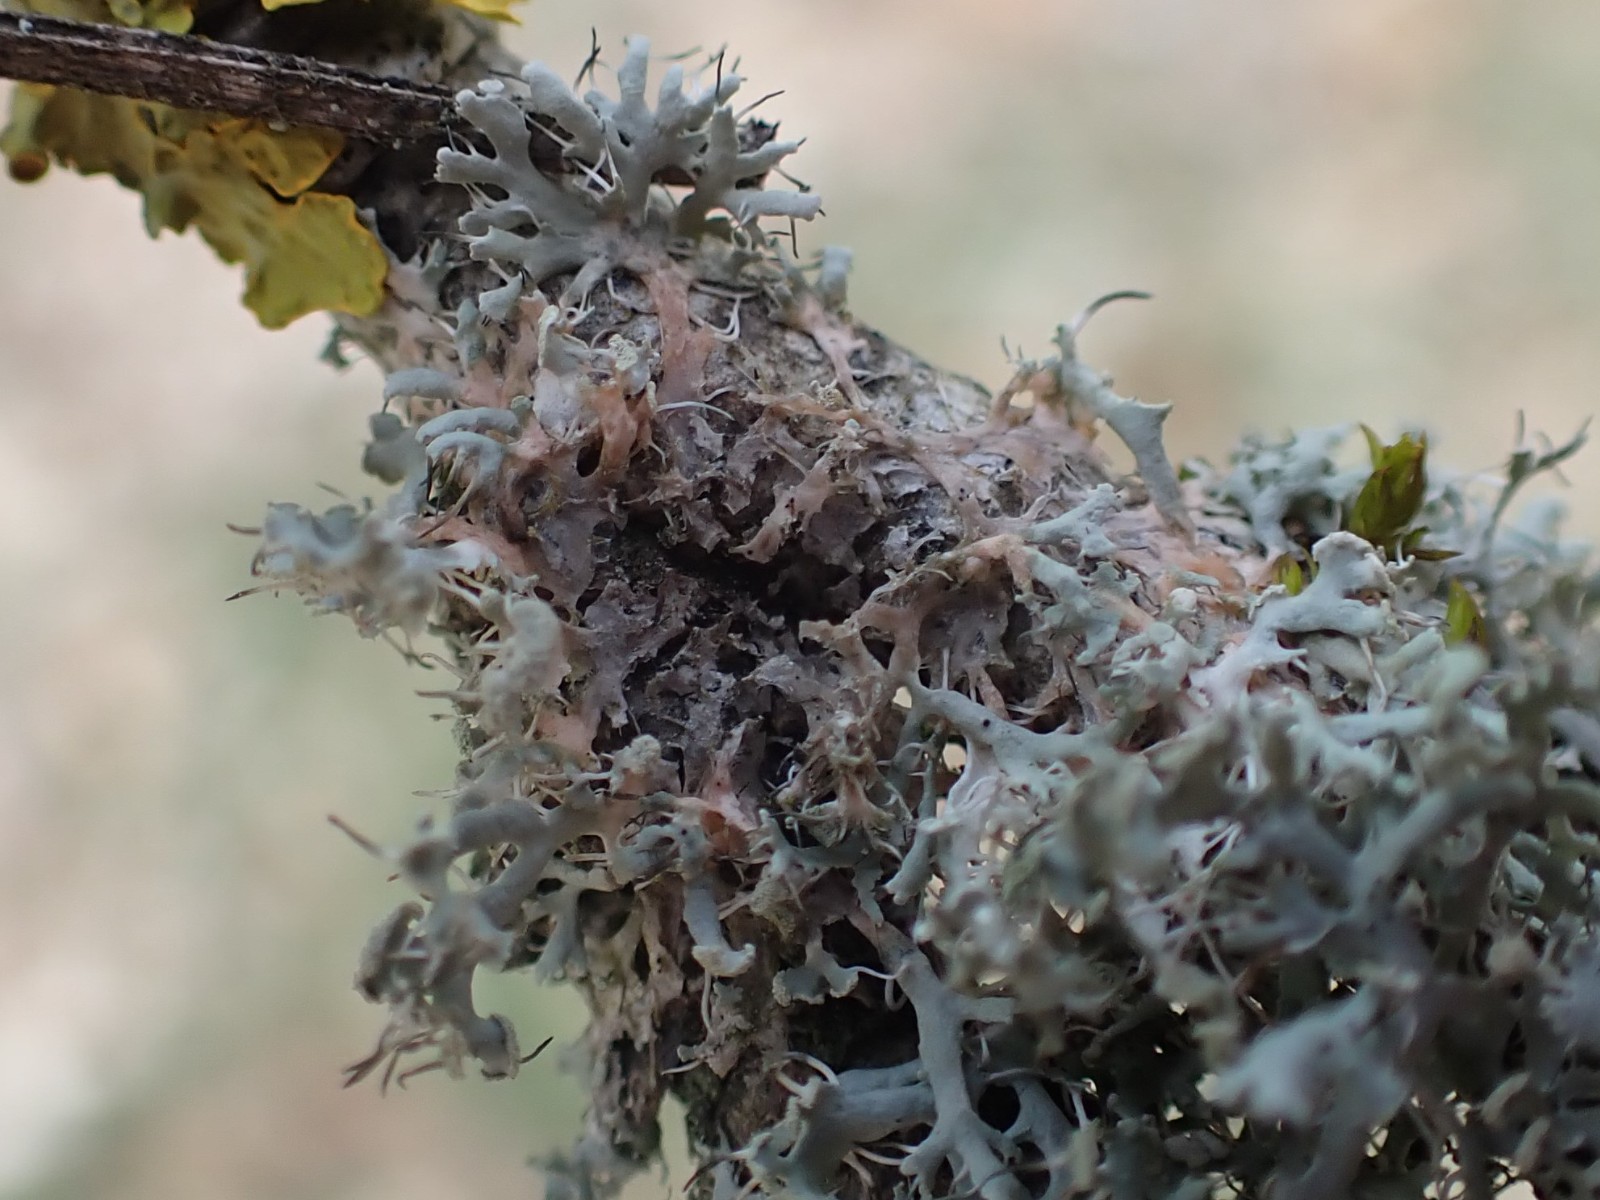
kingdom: Fungi
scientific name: Fungi
